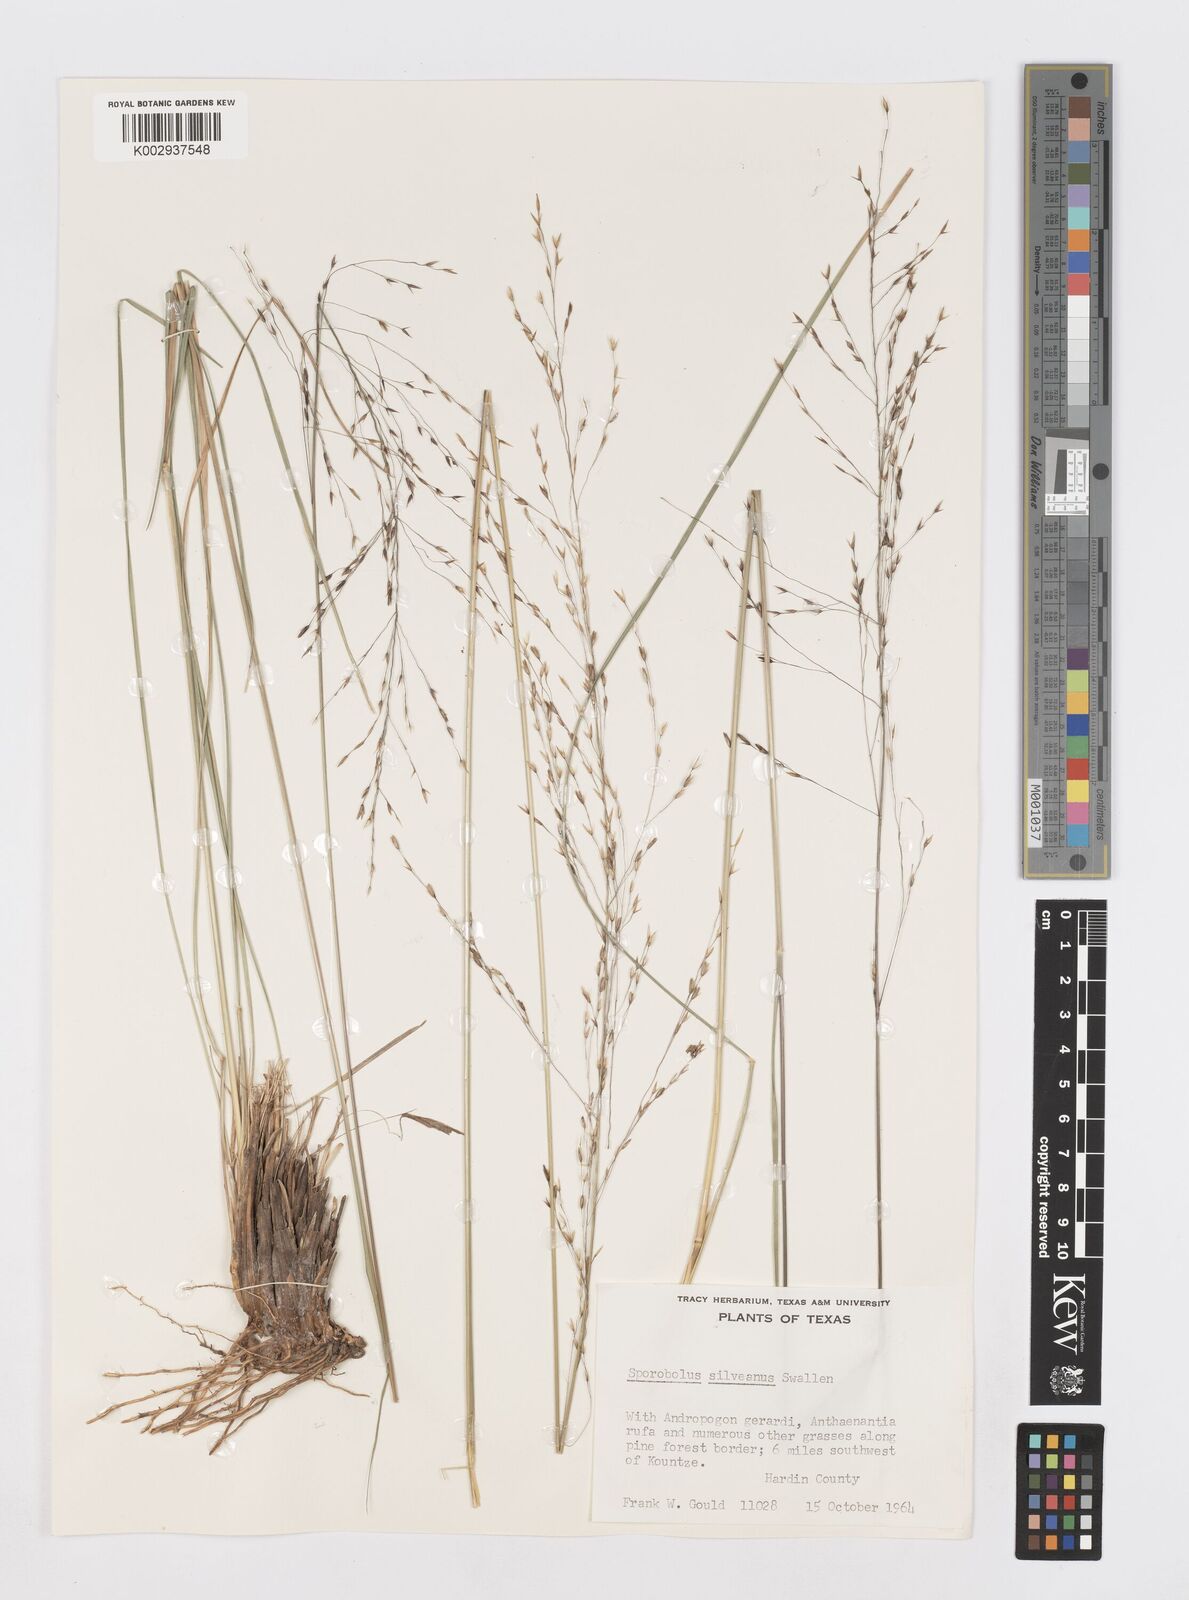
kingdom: Plantae
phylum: Tracheophyta
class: Liliopsida
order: Poales
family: Poaceae
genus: Sporobolus
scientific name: Sporobolus silveanus
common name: Silveus's dropseed
